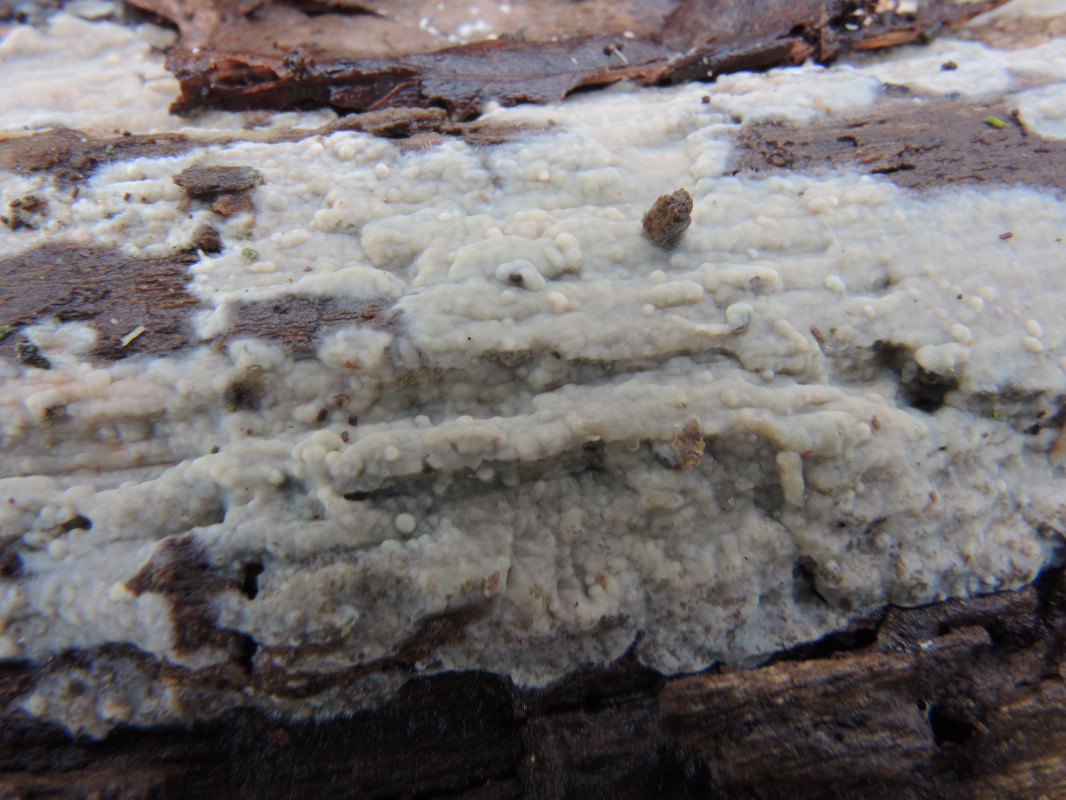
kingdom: Fungi
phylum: Basidiomycota
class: Agaricomycetes
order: Agaricales
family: Radulomycetaceae
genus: Radulomyces
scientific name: Radulomyces confluens
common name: glat naftalinskind
